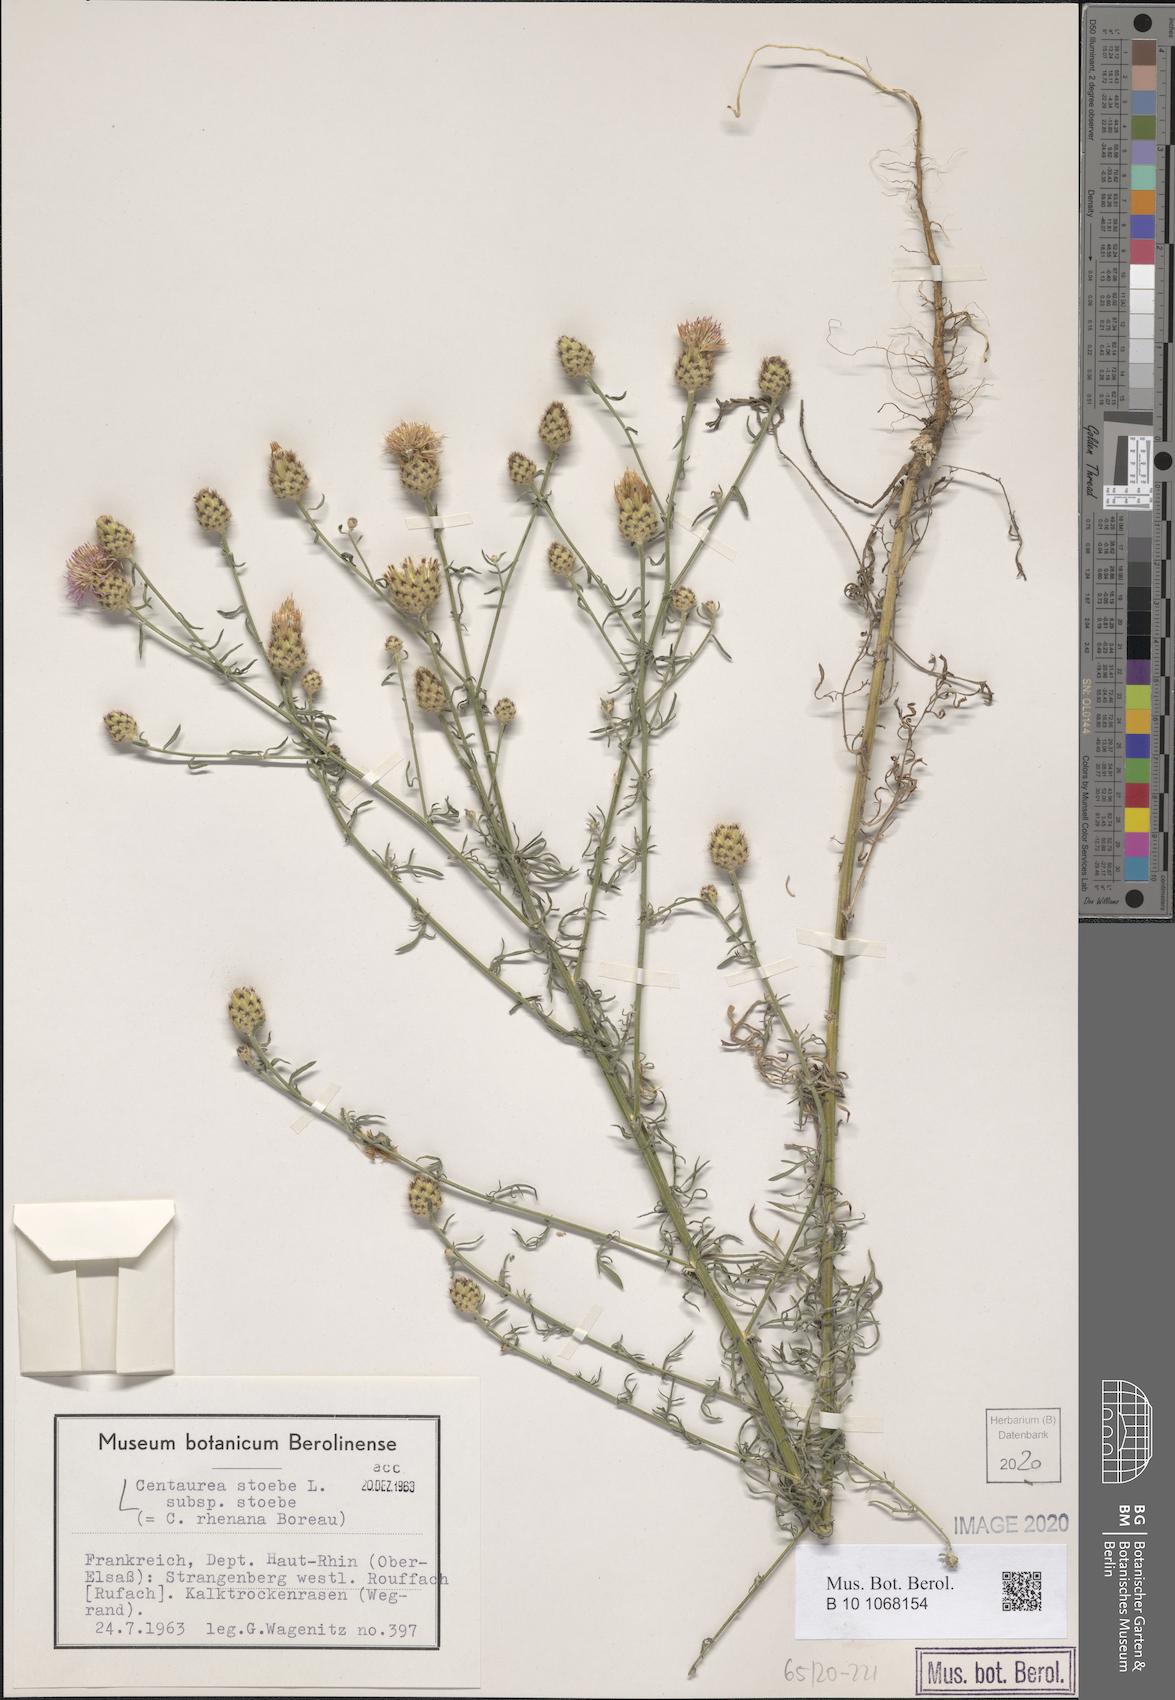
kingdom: Plantae
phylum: Tracheophyta
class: Magnoliopsida
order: Asterales
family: Asteraceae
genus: Centaurea
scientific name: Centaurea stoebe
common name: Spotted knapweed
